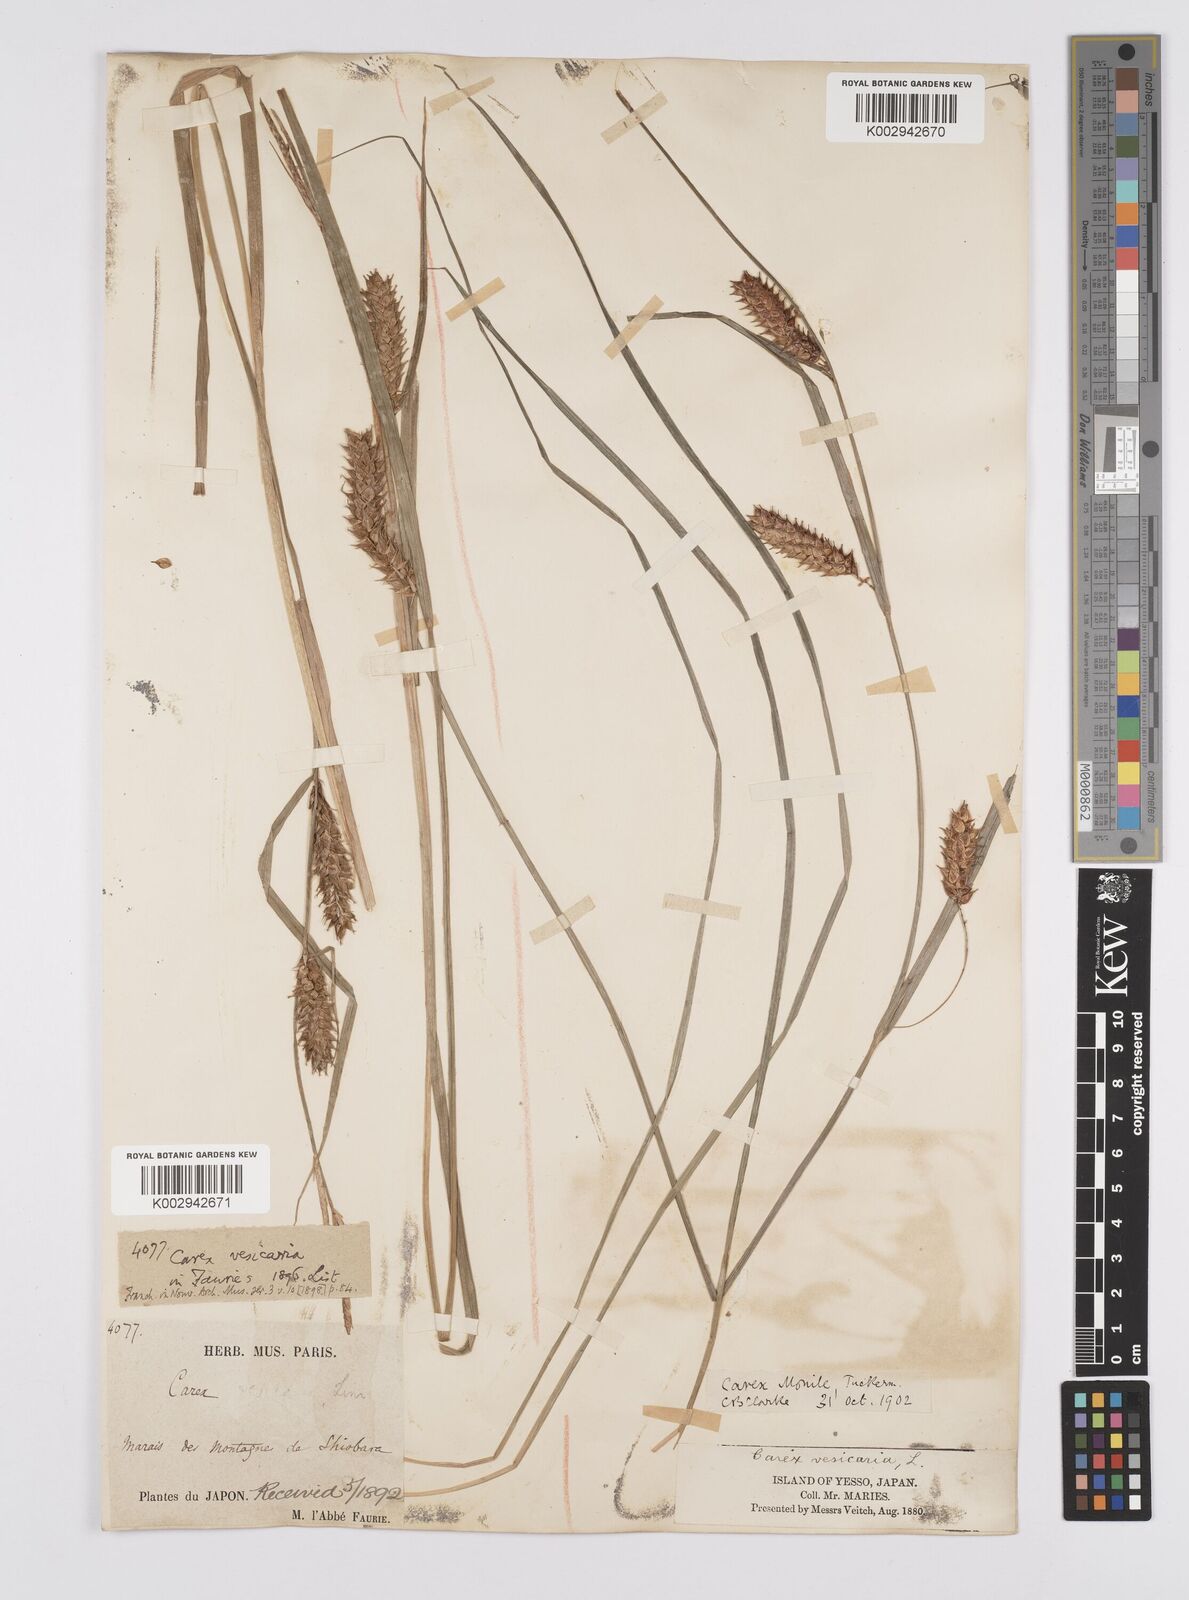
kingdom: Plantae
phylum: Tracheophyta
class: Liliopsida
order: Poales
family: Cyperaceae
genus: Carex
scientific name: Carex vesicaria
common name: Bladder-sedge
